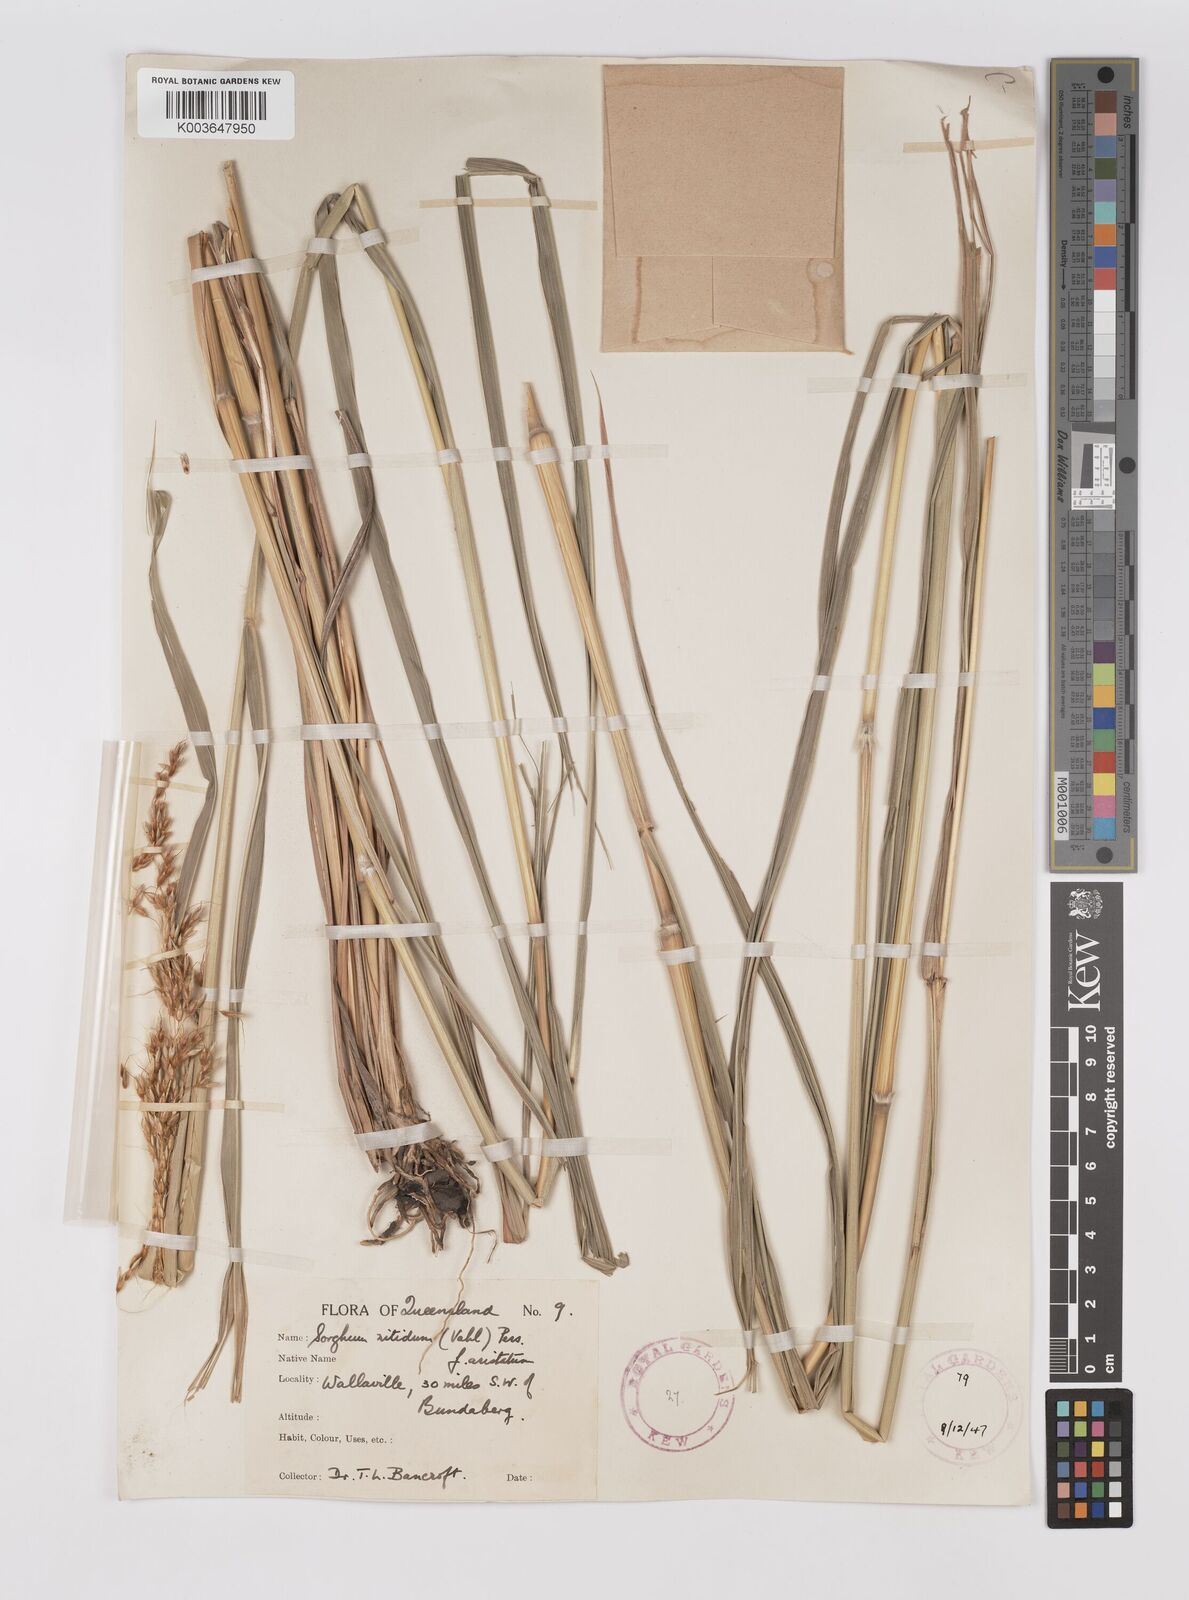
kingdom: Plantae
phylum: Tracheophyta
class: Liliopsida
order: Poales
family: Poaceae
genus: Sorghum
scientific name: Sorghum nitidum
